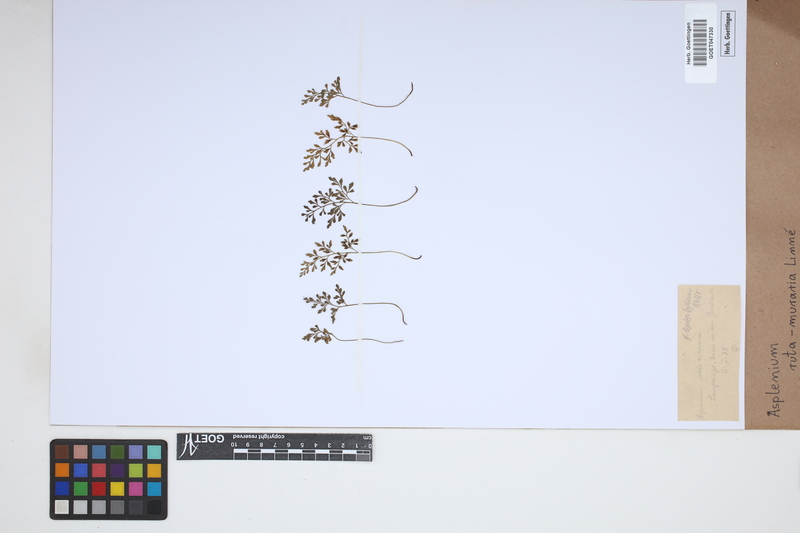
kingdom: Plantae
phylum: Tracheophyta
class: Polypodiopsida
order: Polypodiales
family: Aspleniaceae
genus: Asplenium
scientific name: Asplenium ruta-muraria
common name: Wall-rue
